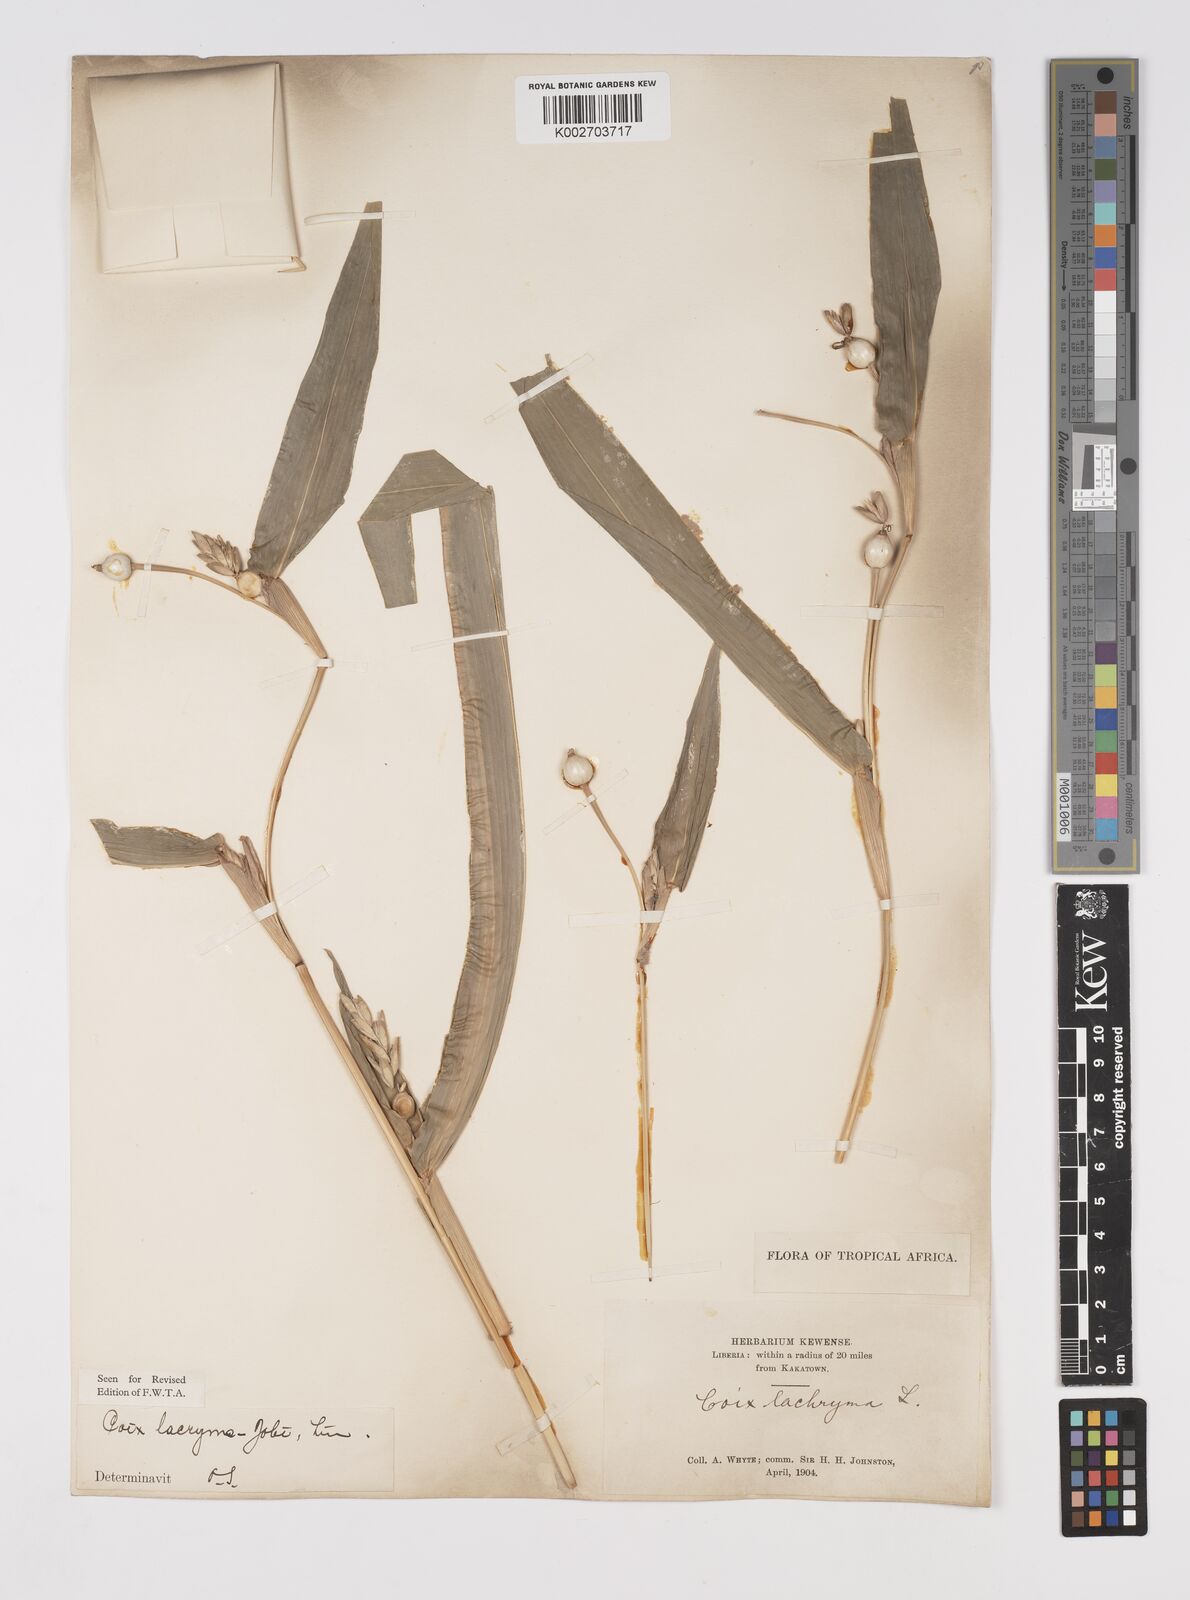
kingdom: Plantae
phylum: Tracheophyta
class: Liliopsida
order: Poales
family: Poaceae
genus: Coix
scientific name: Coix lacryma-jobi
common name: Job's tears
